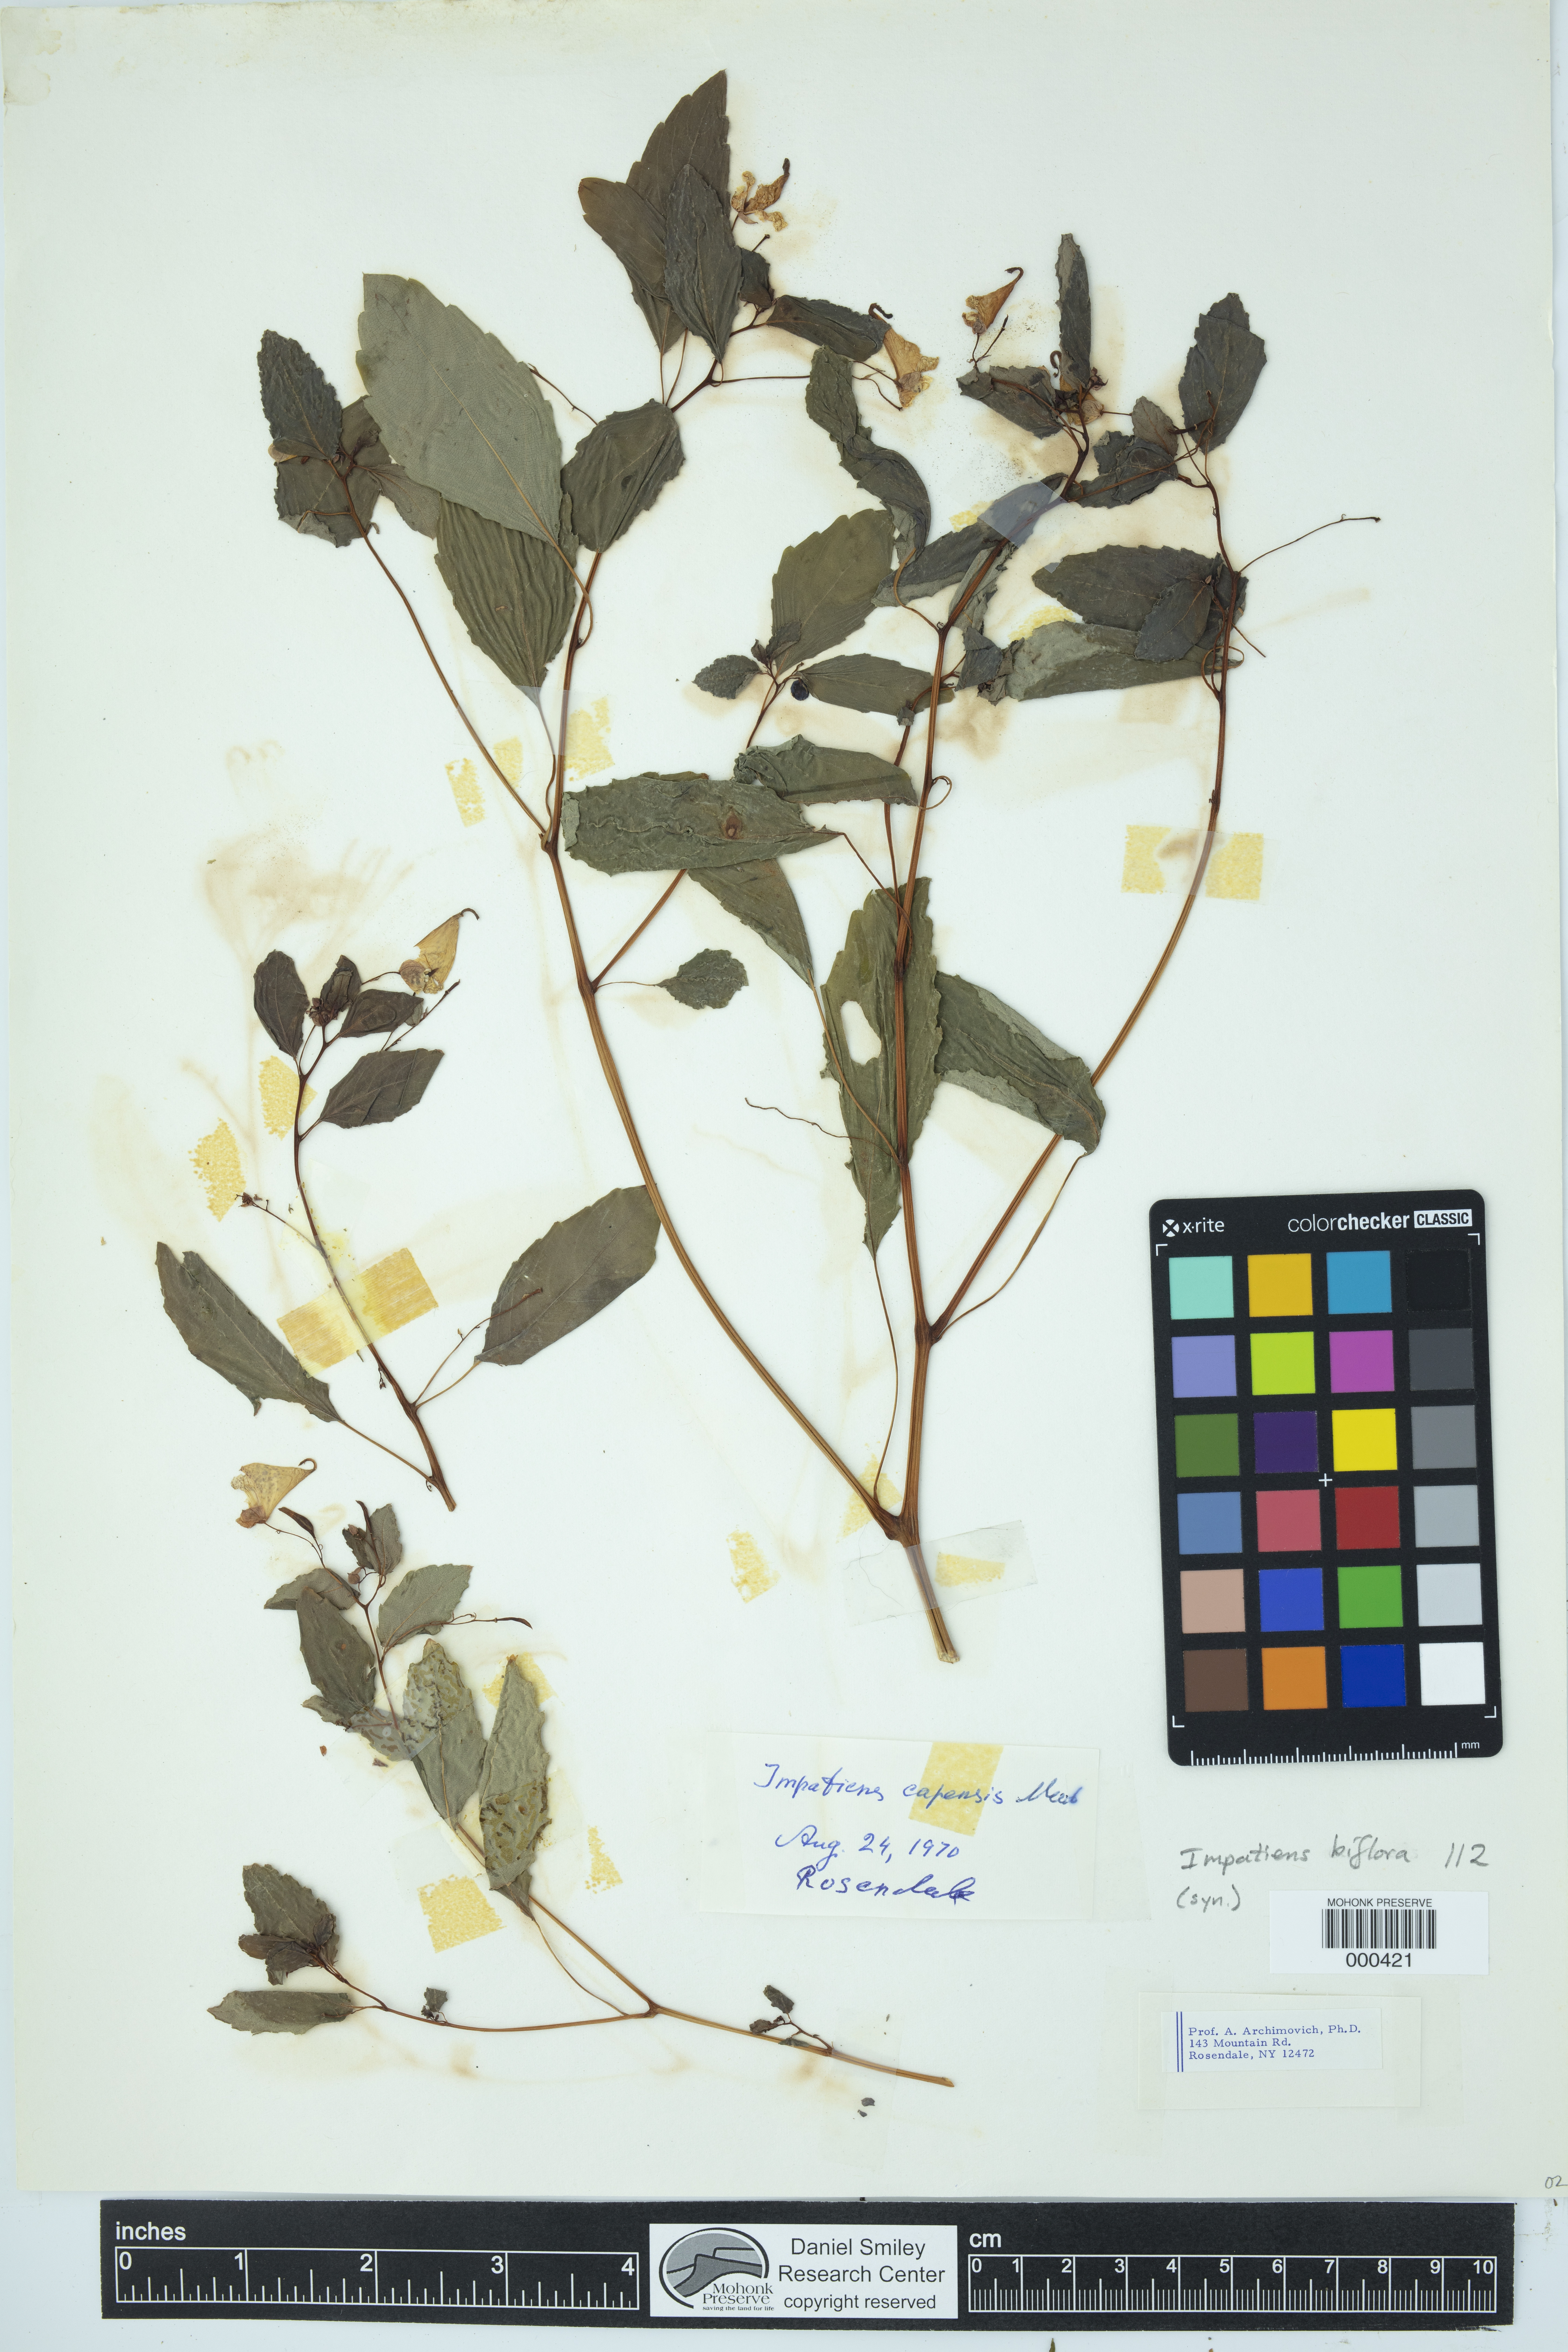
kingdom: Plantae
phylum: Tracheophyta
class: Magnoliopsida
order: Ericales
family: Balsaminaceae
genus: Impatiens
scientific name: Impatiens capensis
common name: Orange balsam
